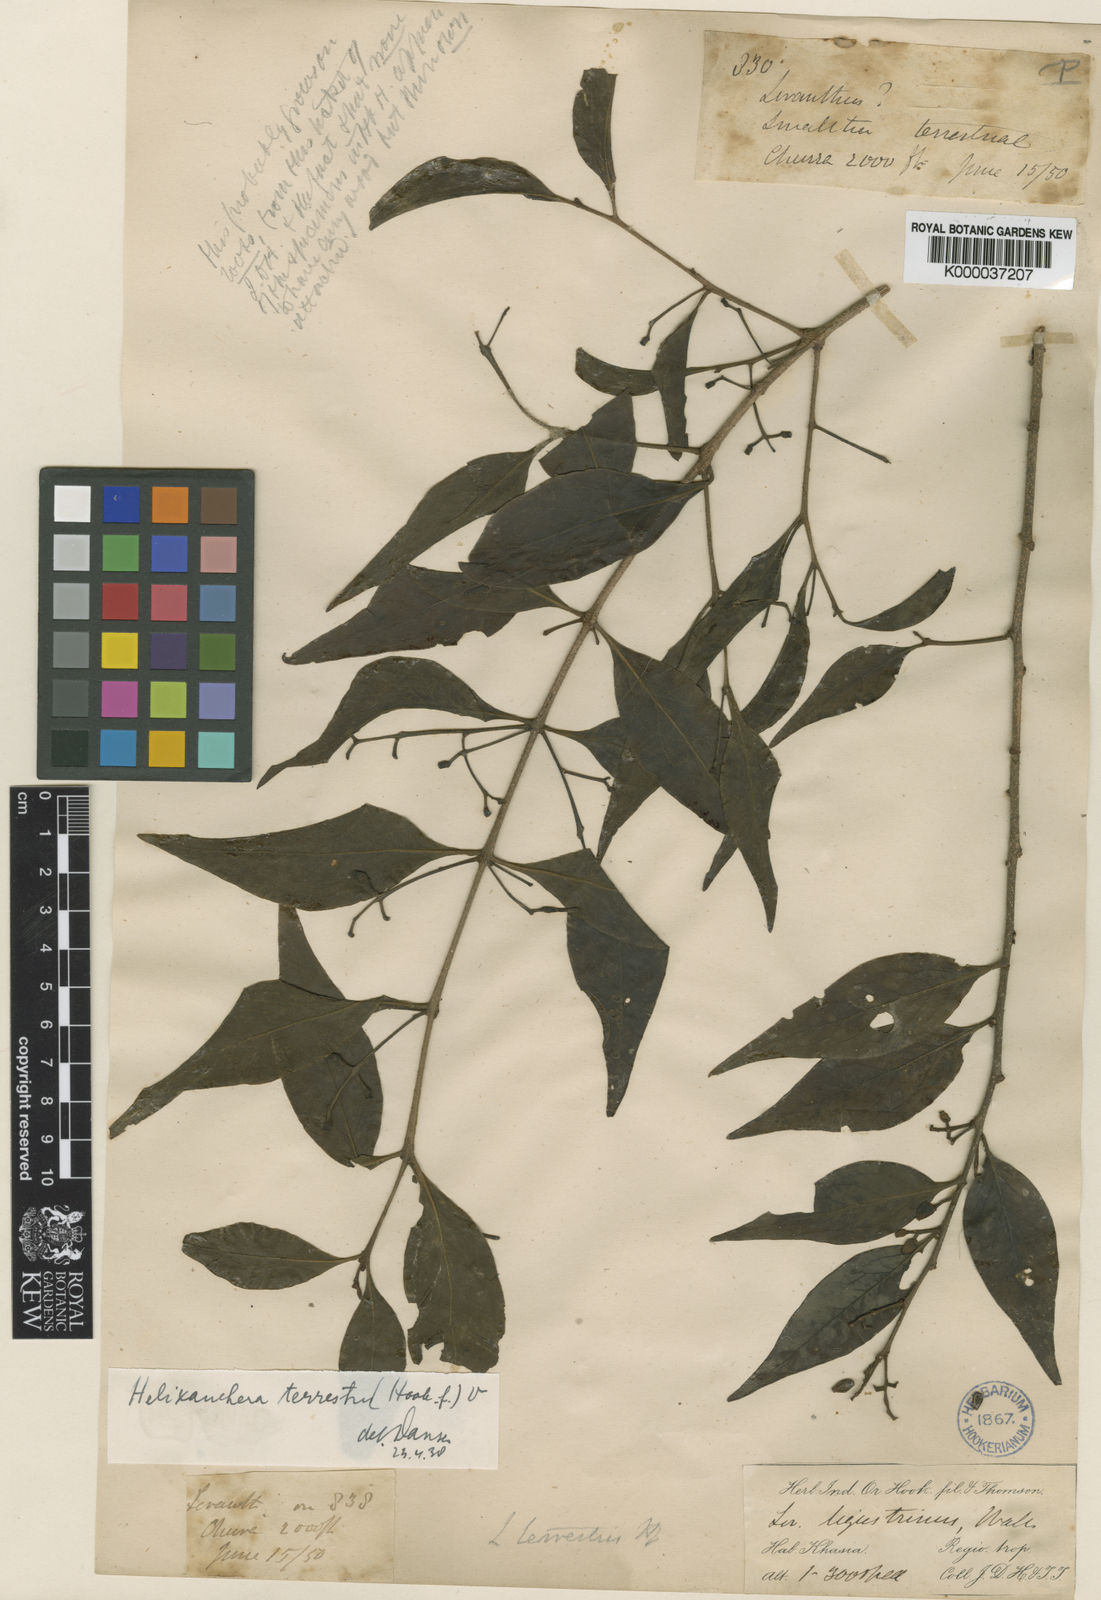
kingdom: Plantae
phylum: Tracheophyta
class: Magnoliopsida
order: Santalales
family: Loranthaceae
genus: Helixanthera
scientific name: Helixanthera ligustrina
